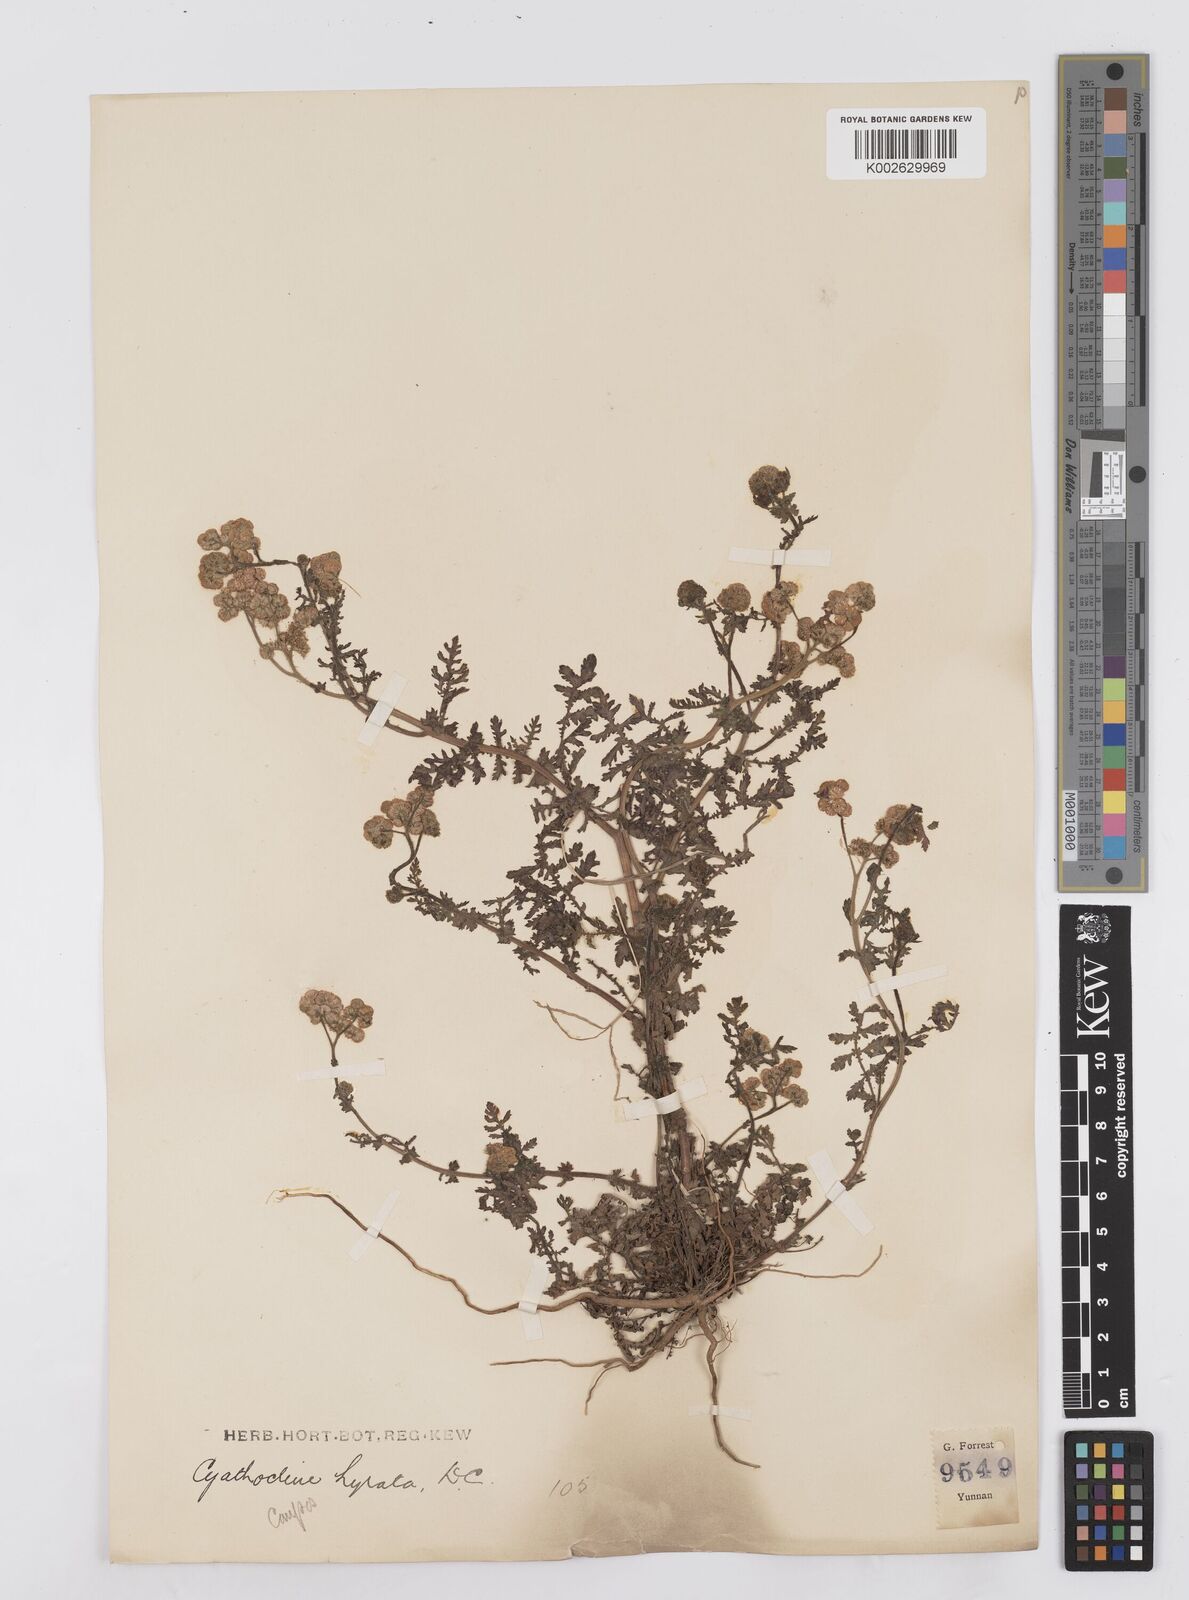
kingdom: Plantae
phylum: Tracheophyta
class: Magnoliopsida
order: Asterales
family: Asteraceae
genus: Cyathocline
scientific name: Cyathocline purpurea
